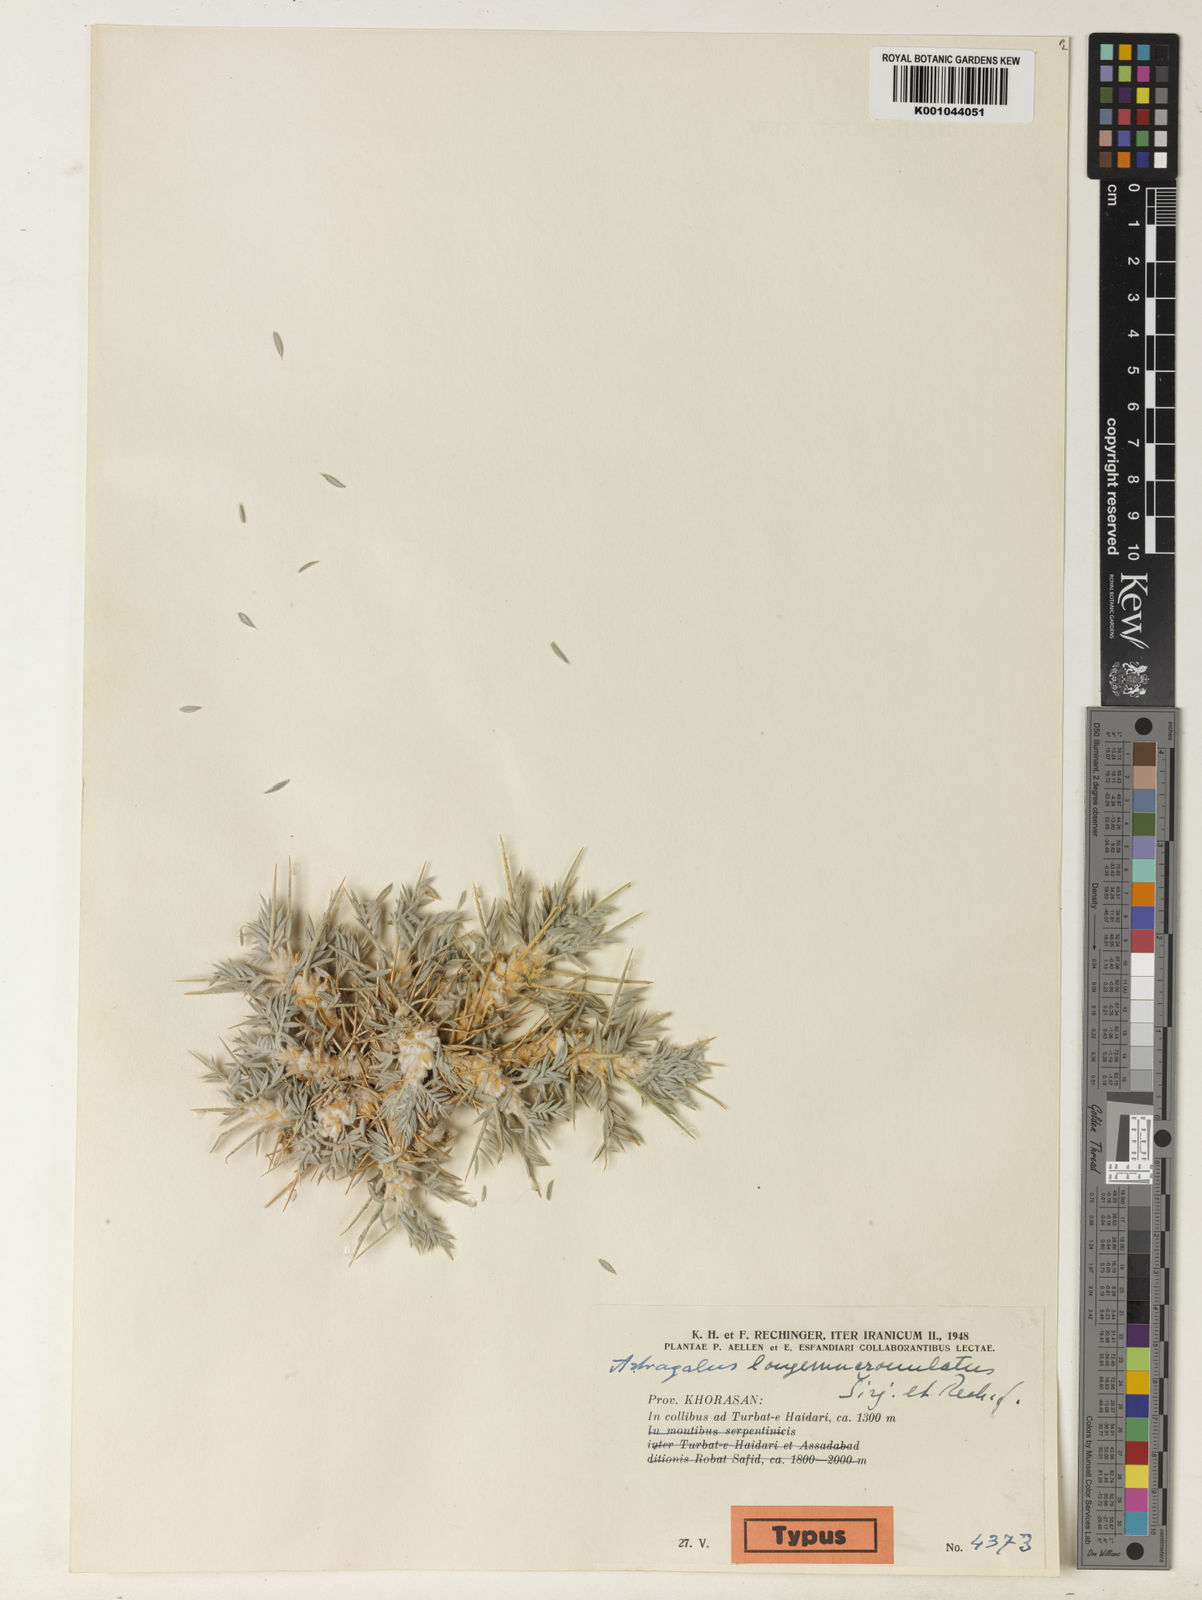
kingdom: Plantae
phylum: Tracheophyta
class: Magnoliopsida
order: Fabales
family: Fabaceae
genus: Astragalus
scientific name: Astragalus
